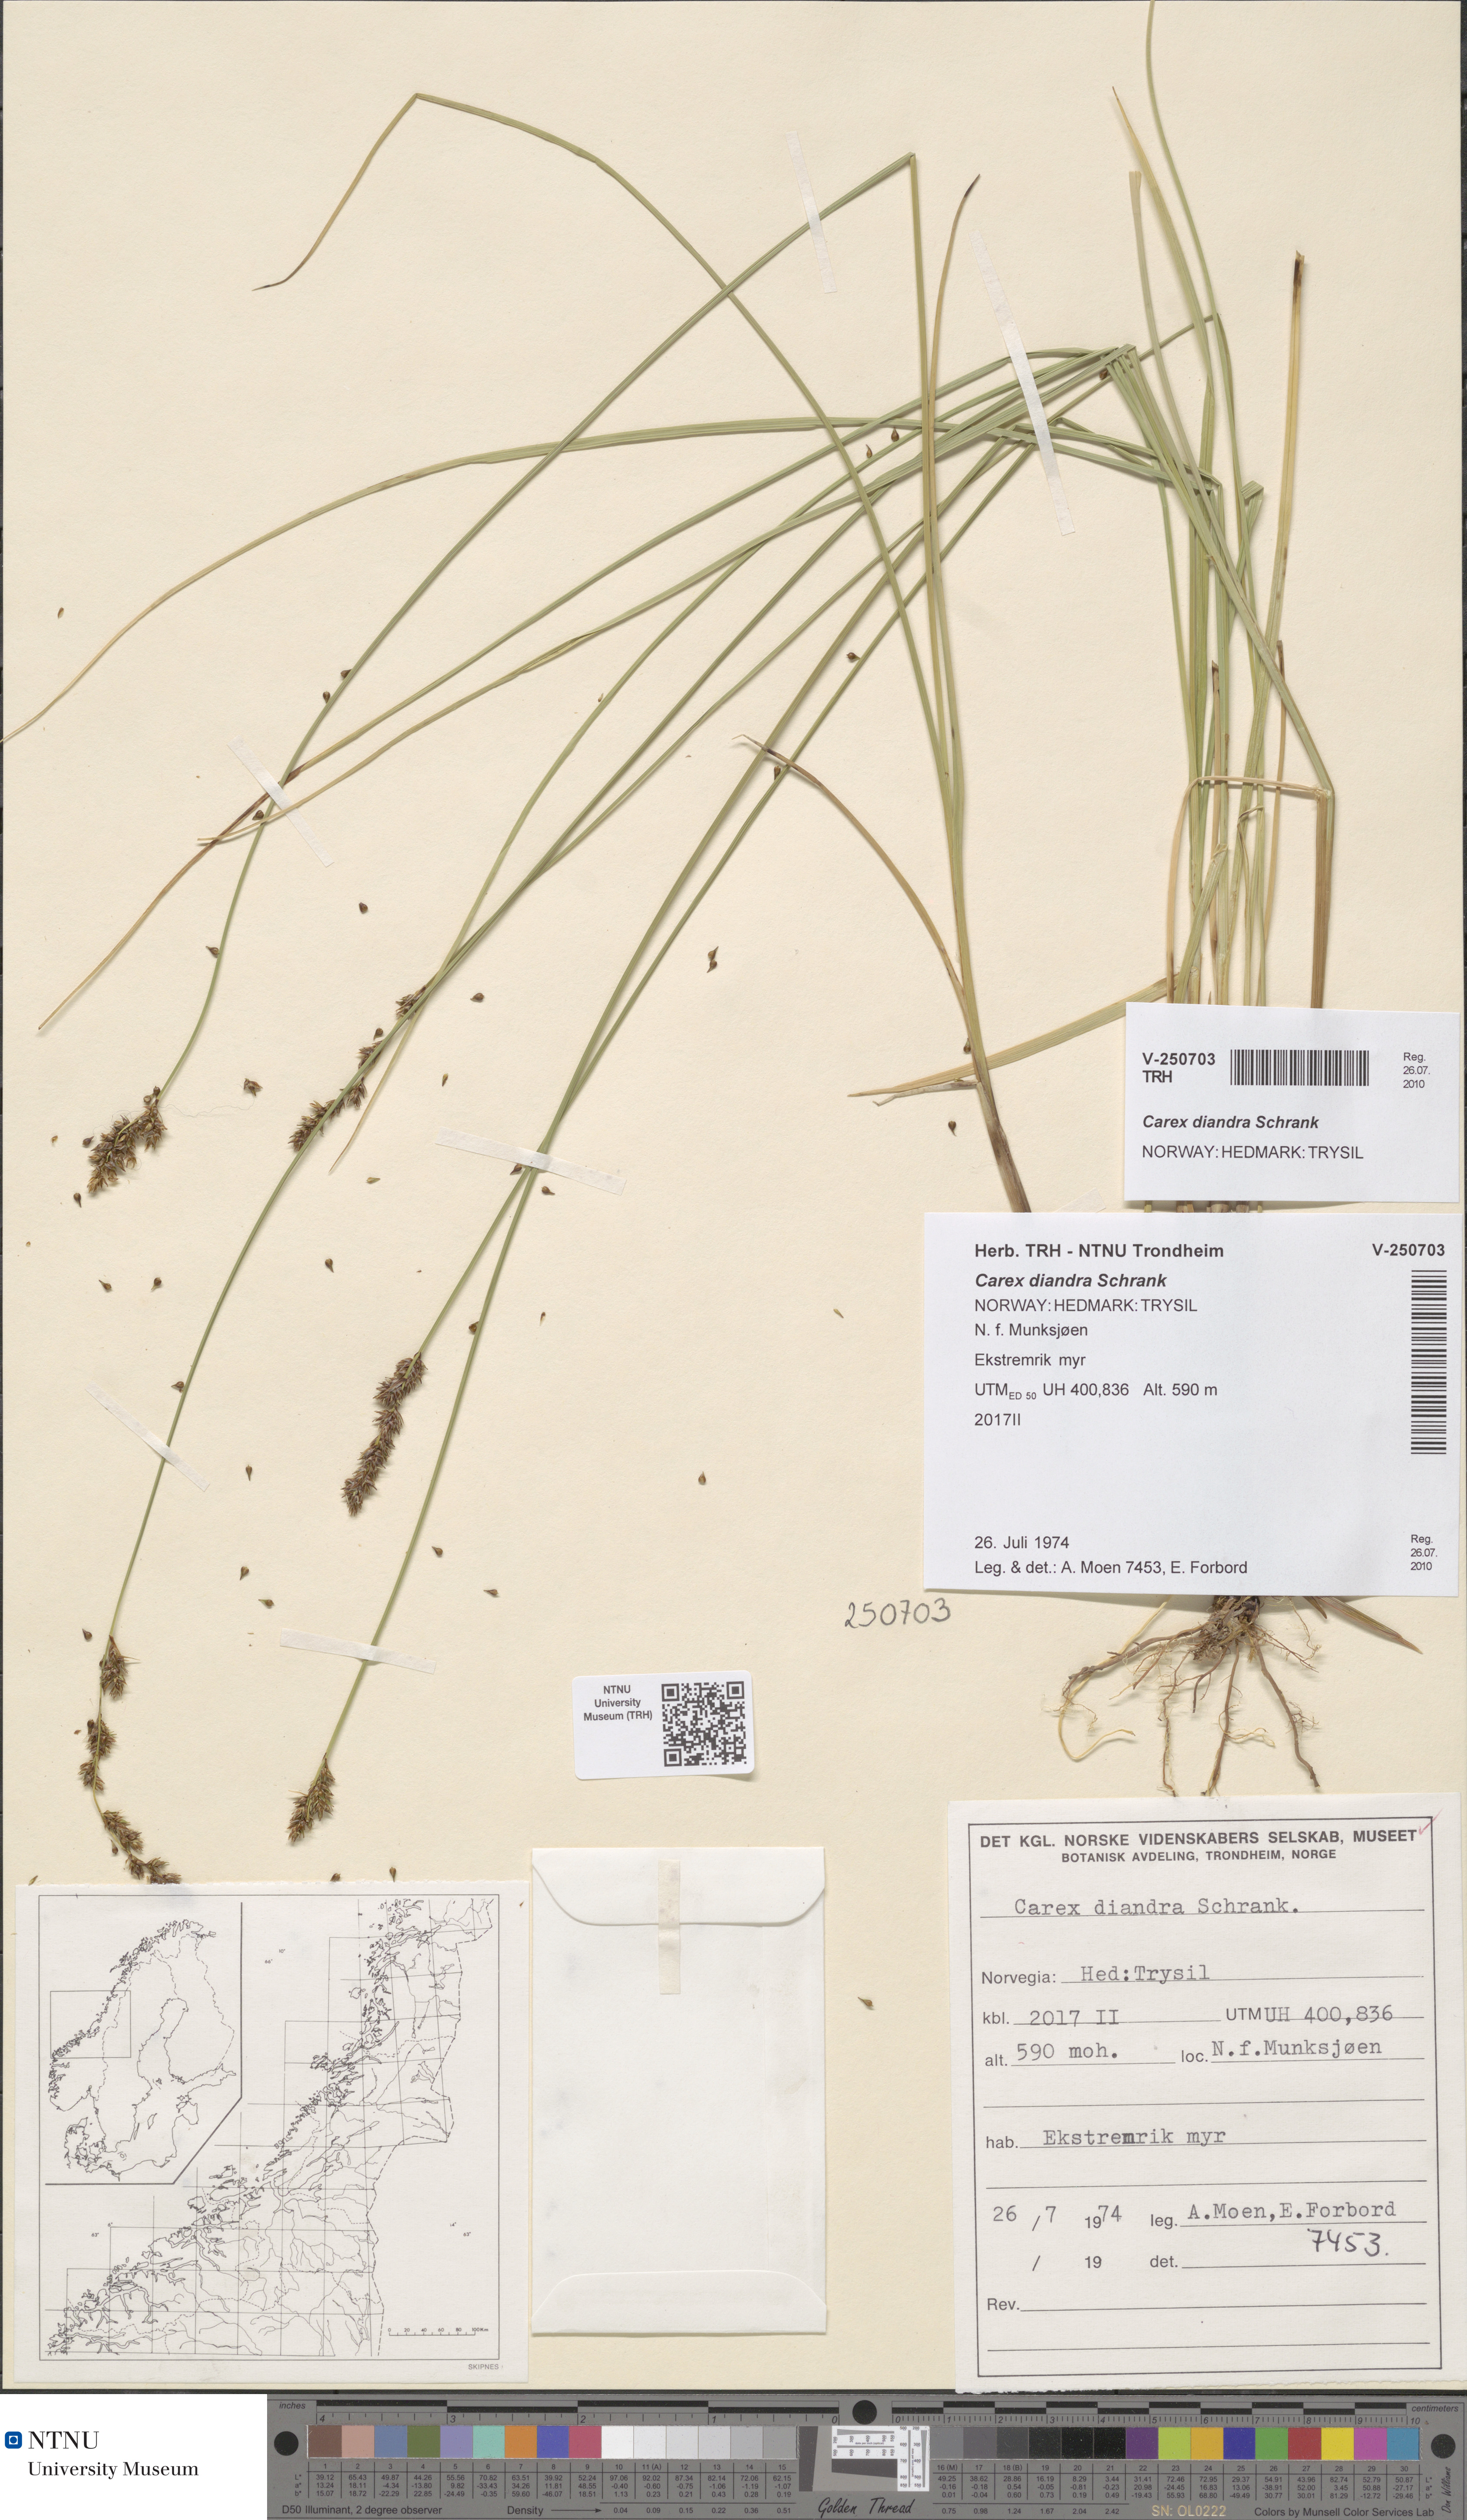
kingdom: Plantae
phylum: Tracheophyta
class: Liliopsida
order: Poales
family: Cyperaceae
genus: Carex
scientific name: Carex diandra
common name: Lesser tussock-sedge
